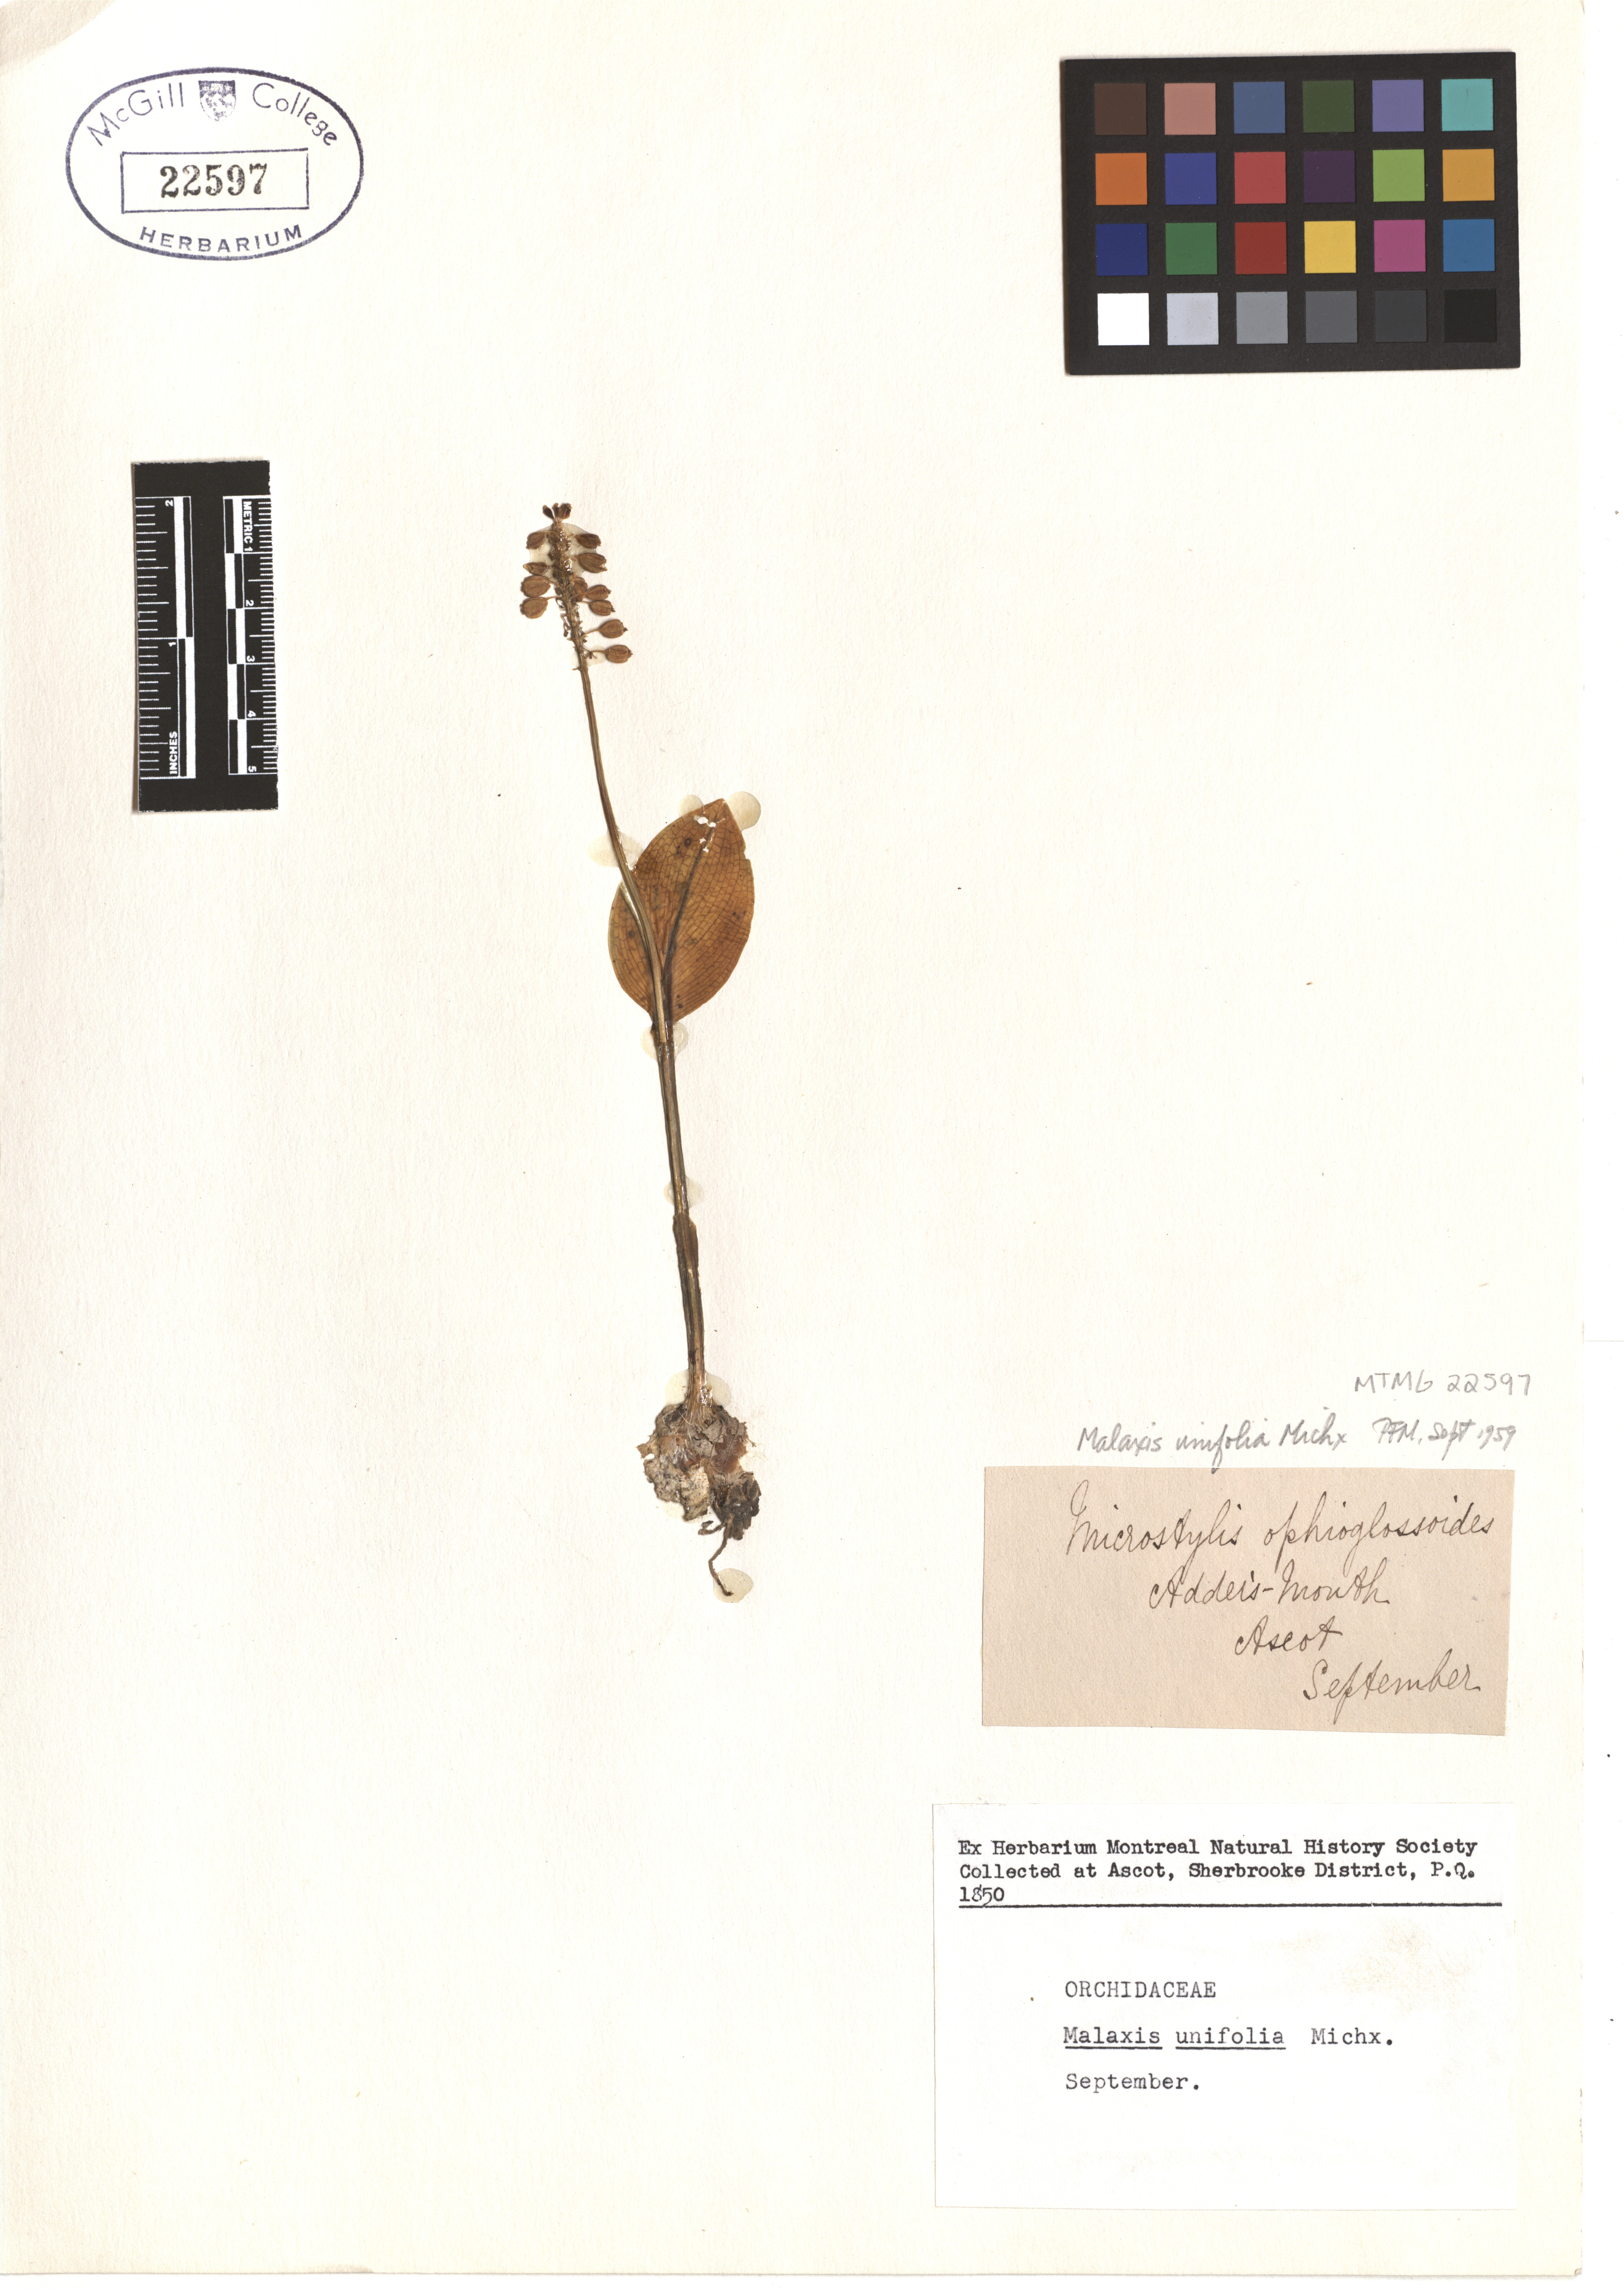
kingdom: Plantae
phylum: Tracheophyta
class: Liliopsida
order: Asparagales
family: Orchidaceae
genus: Malaxis
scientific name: Malaxis unifolia
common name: Green adder's-mouth
